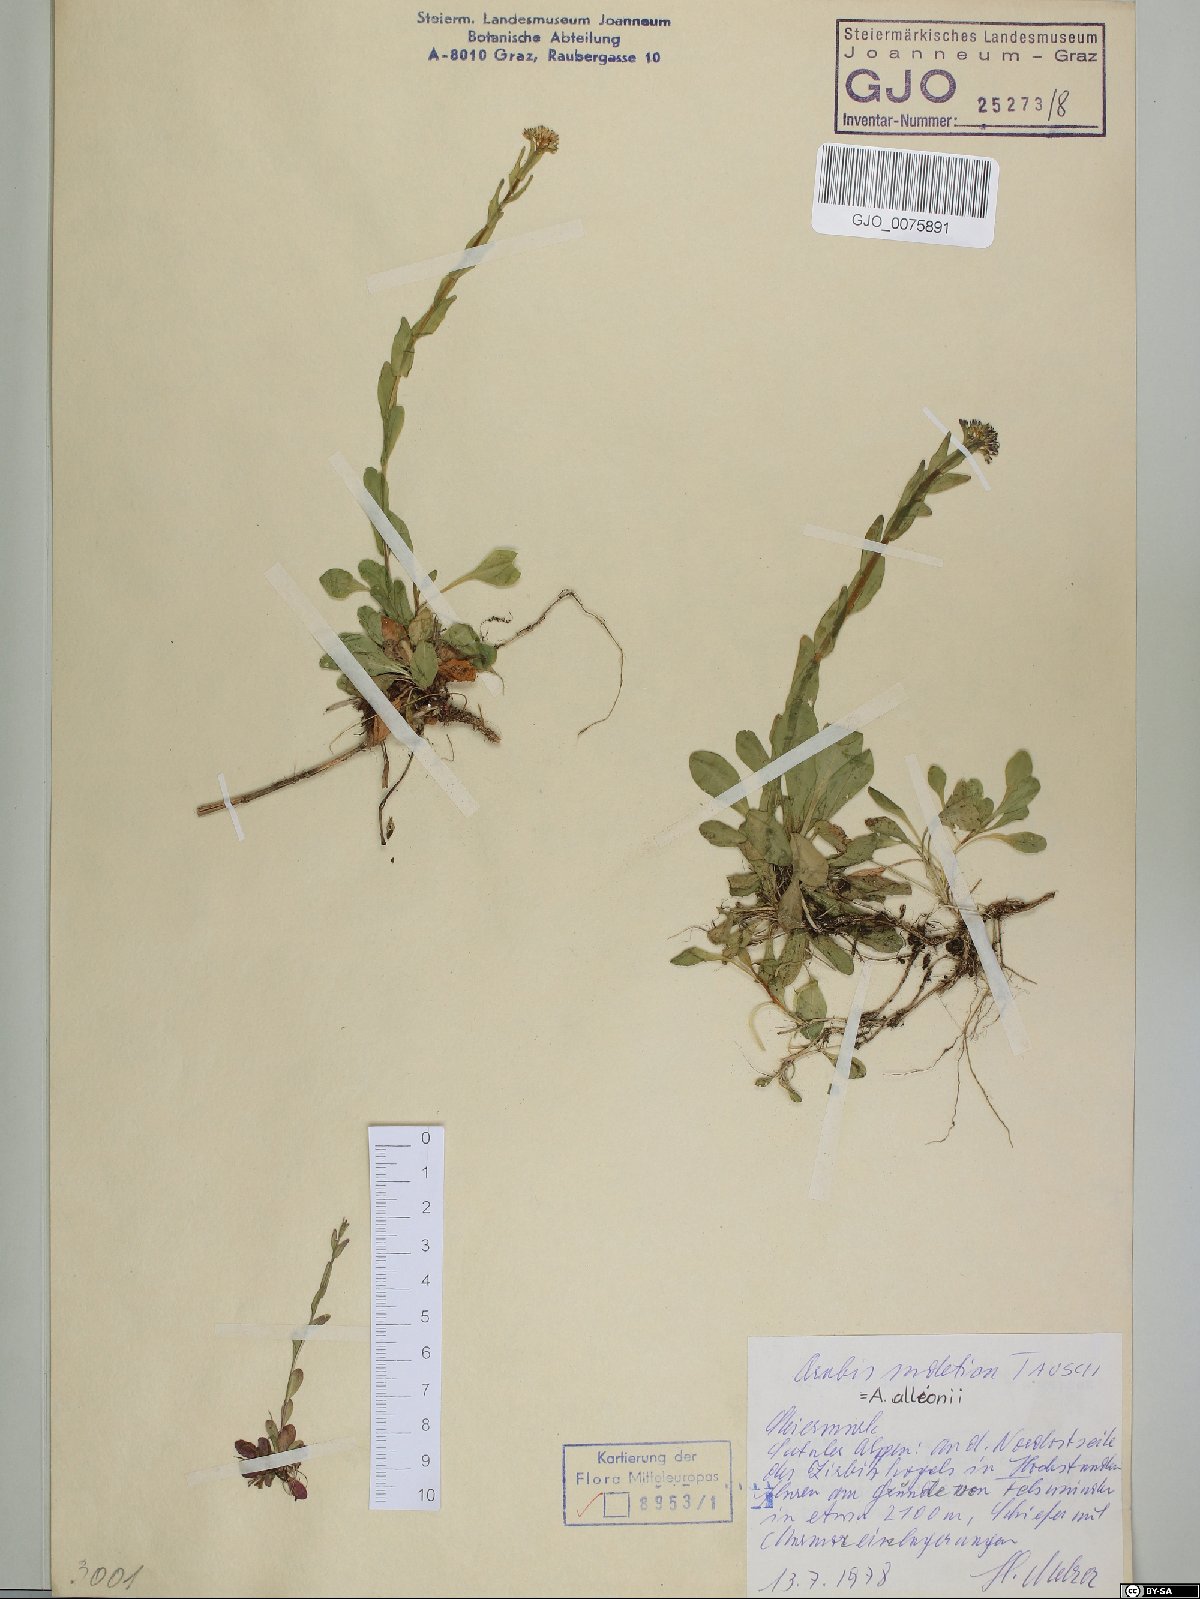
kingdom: Plantae
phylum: Tracheophyta
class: Magnoliopsida
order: Brassicales
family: Brassicaceae
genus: Arabis
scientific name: Arabis sudetica
